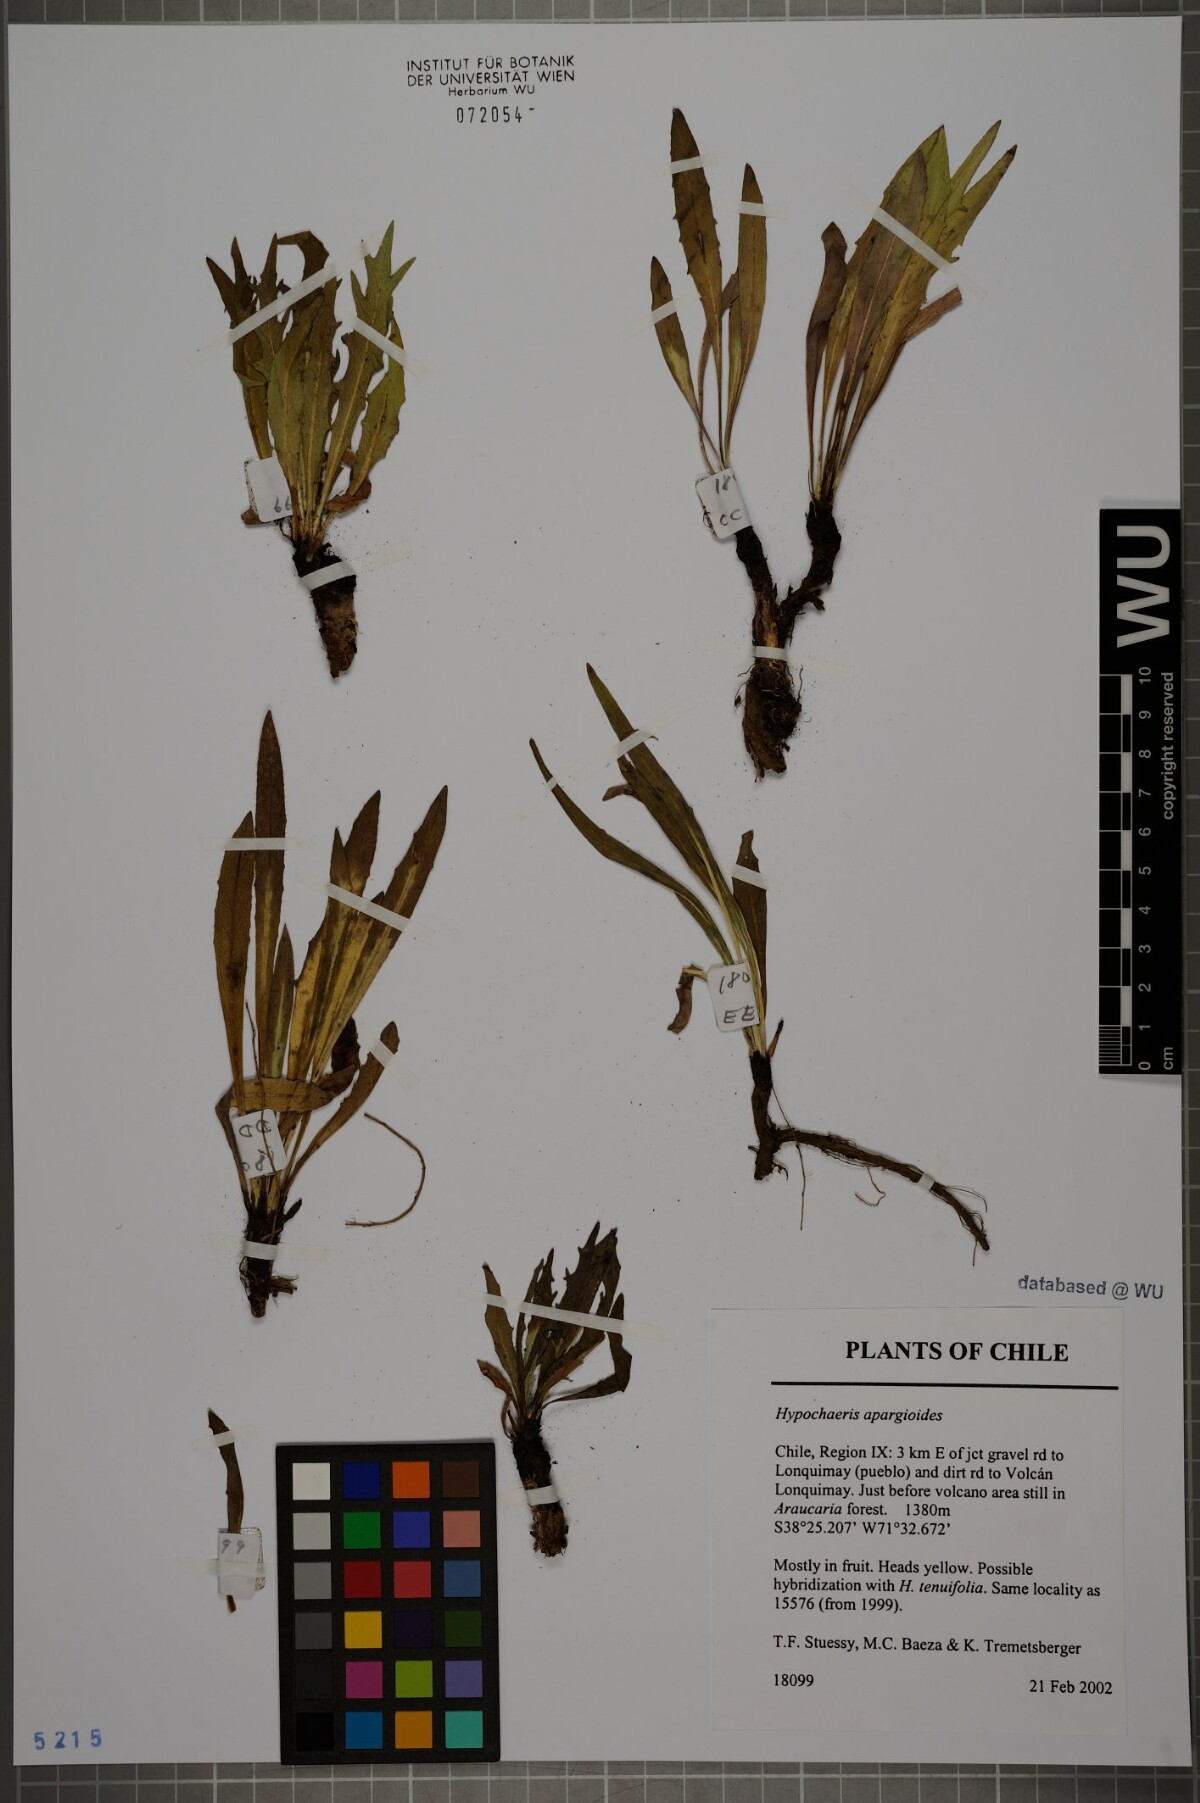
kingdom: Plantae
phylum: Tracheophyta
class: Magnoliopsida
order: Asterales
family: Asteraceae
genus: Hypochaeris
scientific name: Hypochaeris apargioides
